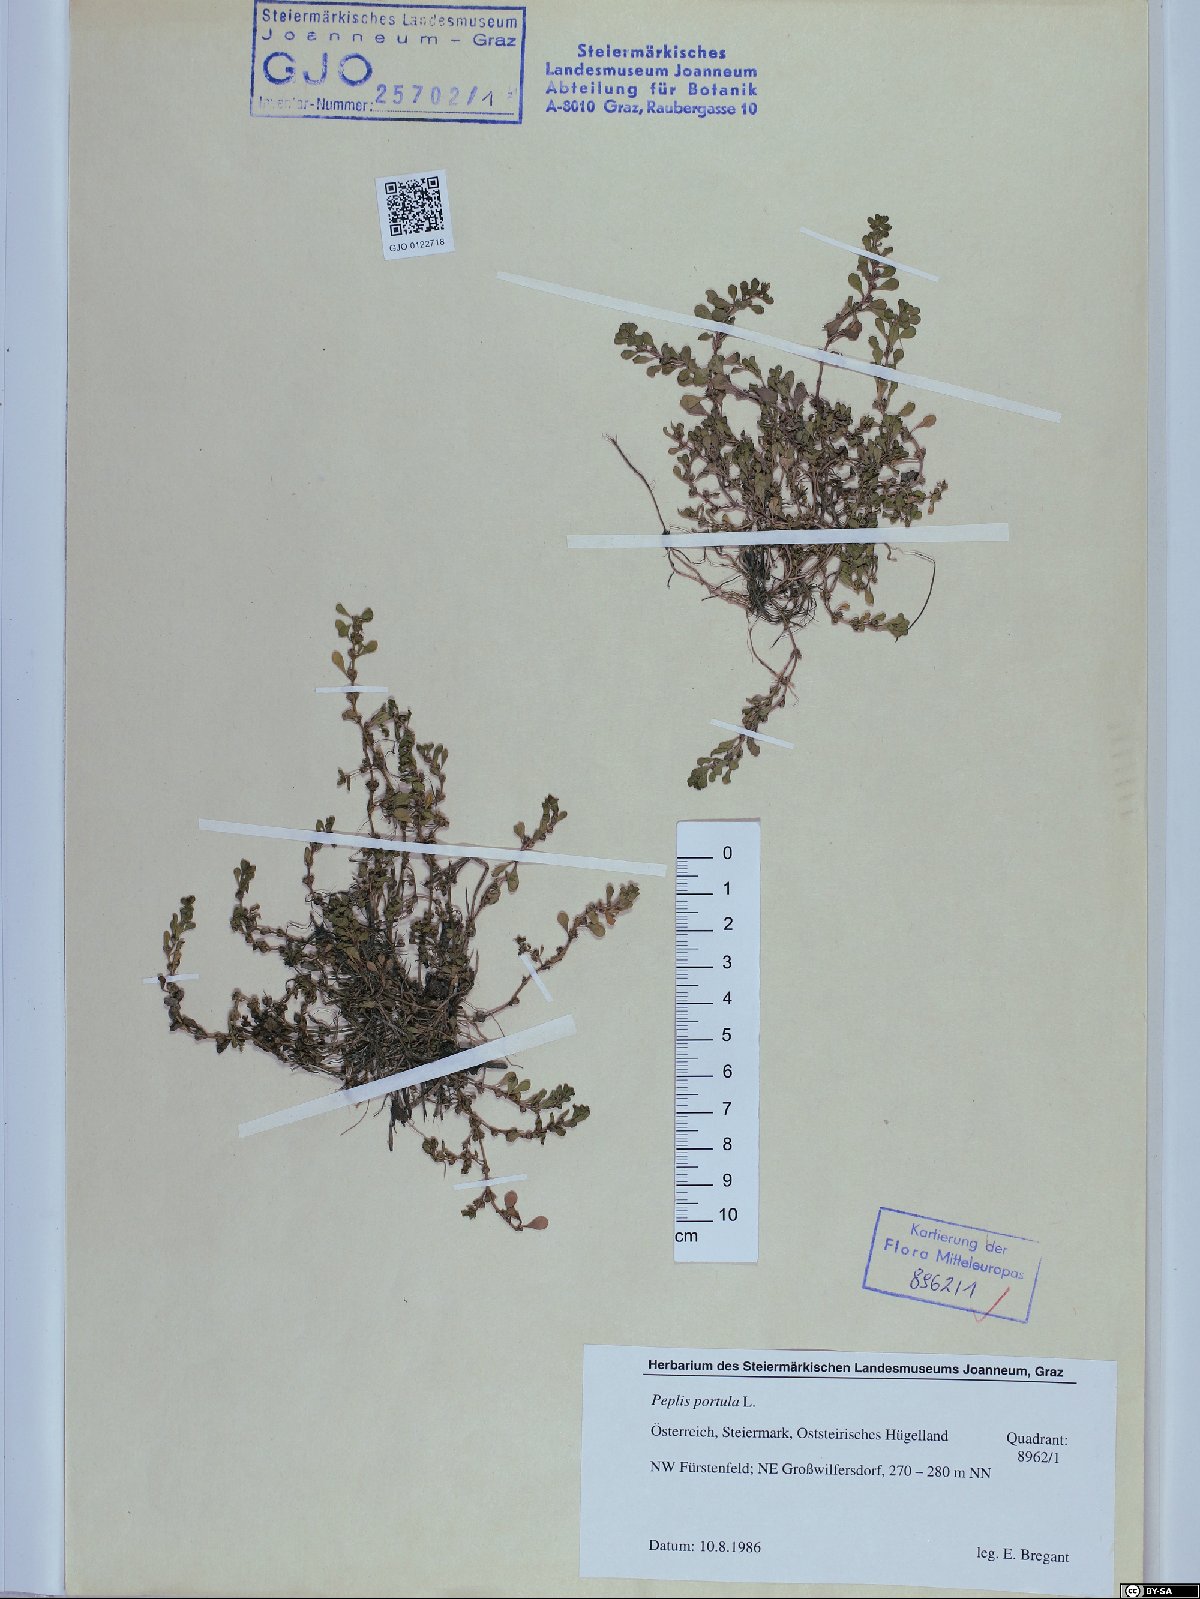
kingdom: Plantae
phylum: Tracheophyta
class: Magnoliopsida
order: Myrtales
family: Lythraceae
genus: Lythrum
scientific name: Lythrum portula
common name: Water purslane
